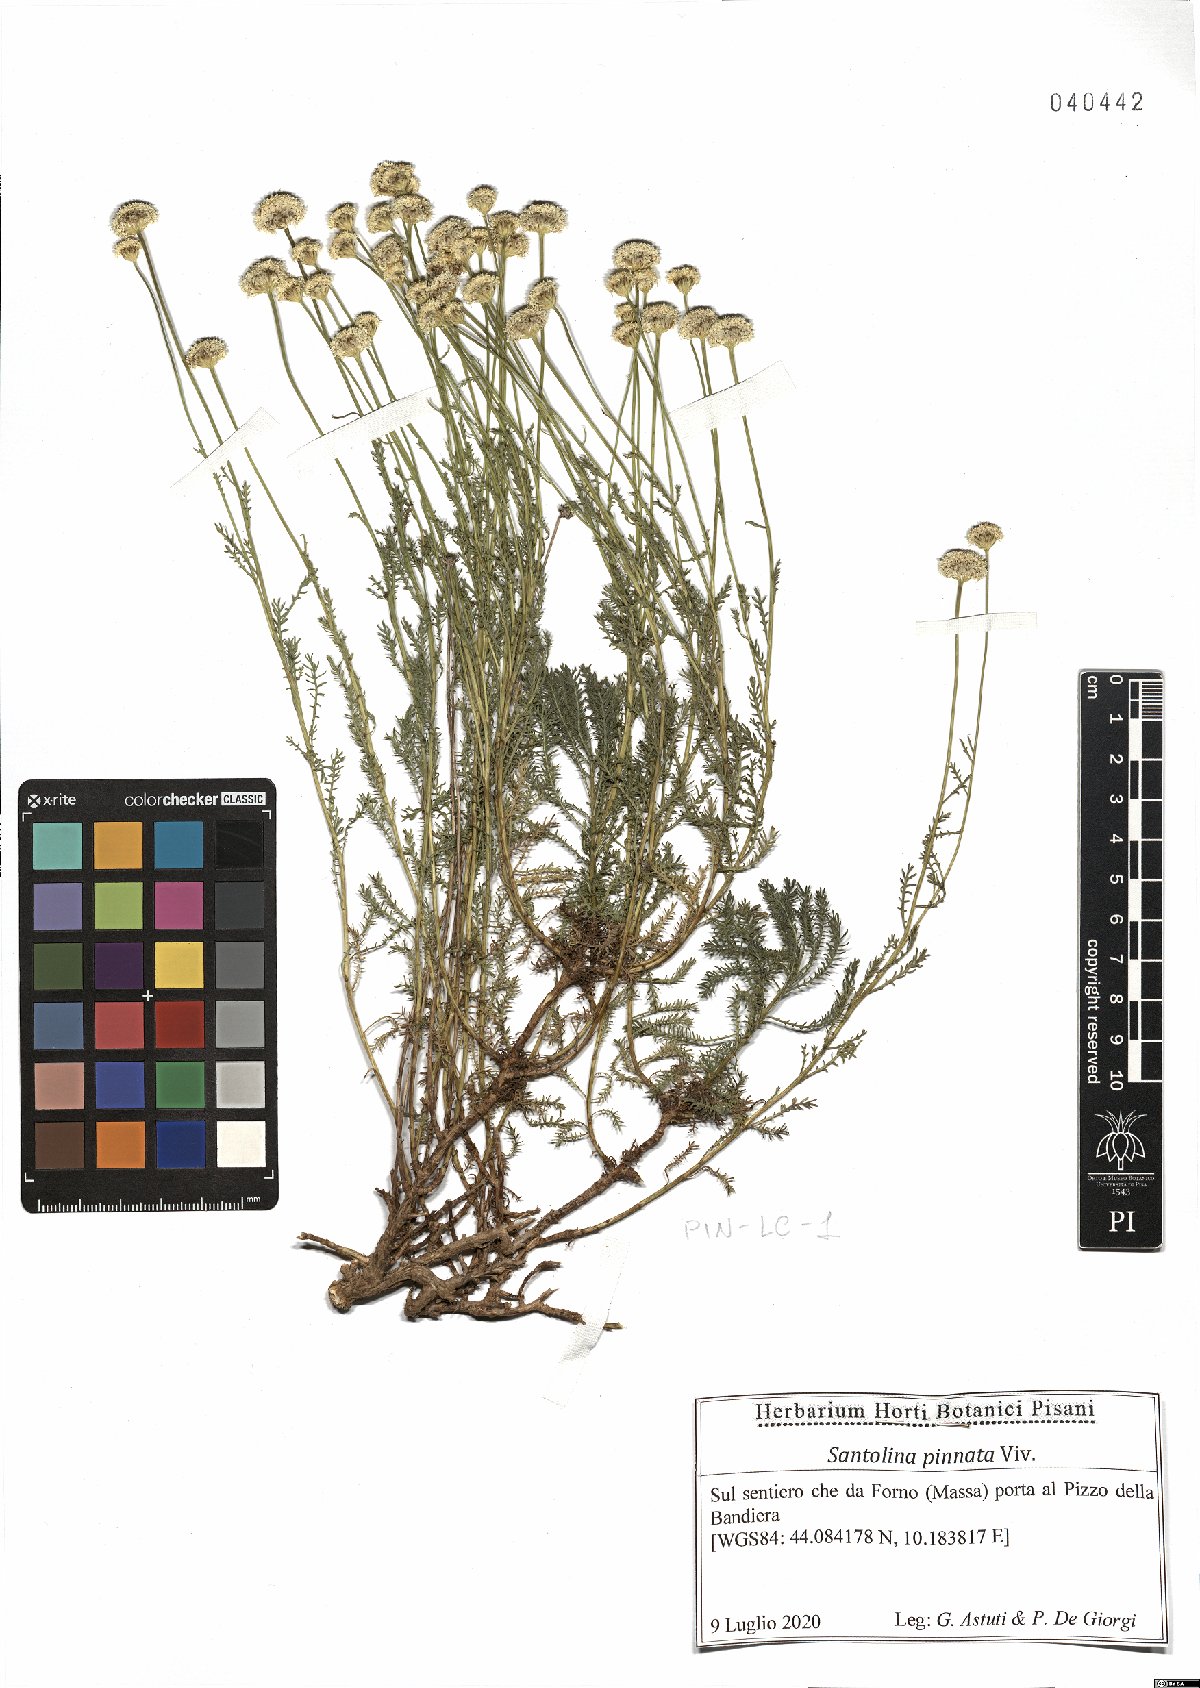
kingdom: Plantae
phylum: Tracheophyta
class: Magnoliopsida
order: Asterales
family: Asteraceae
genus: Santolina
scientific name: Santolina pinnata
